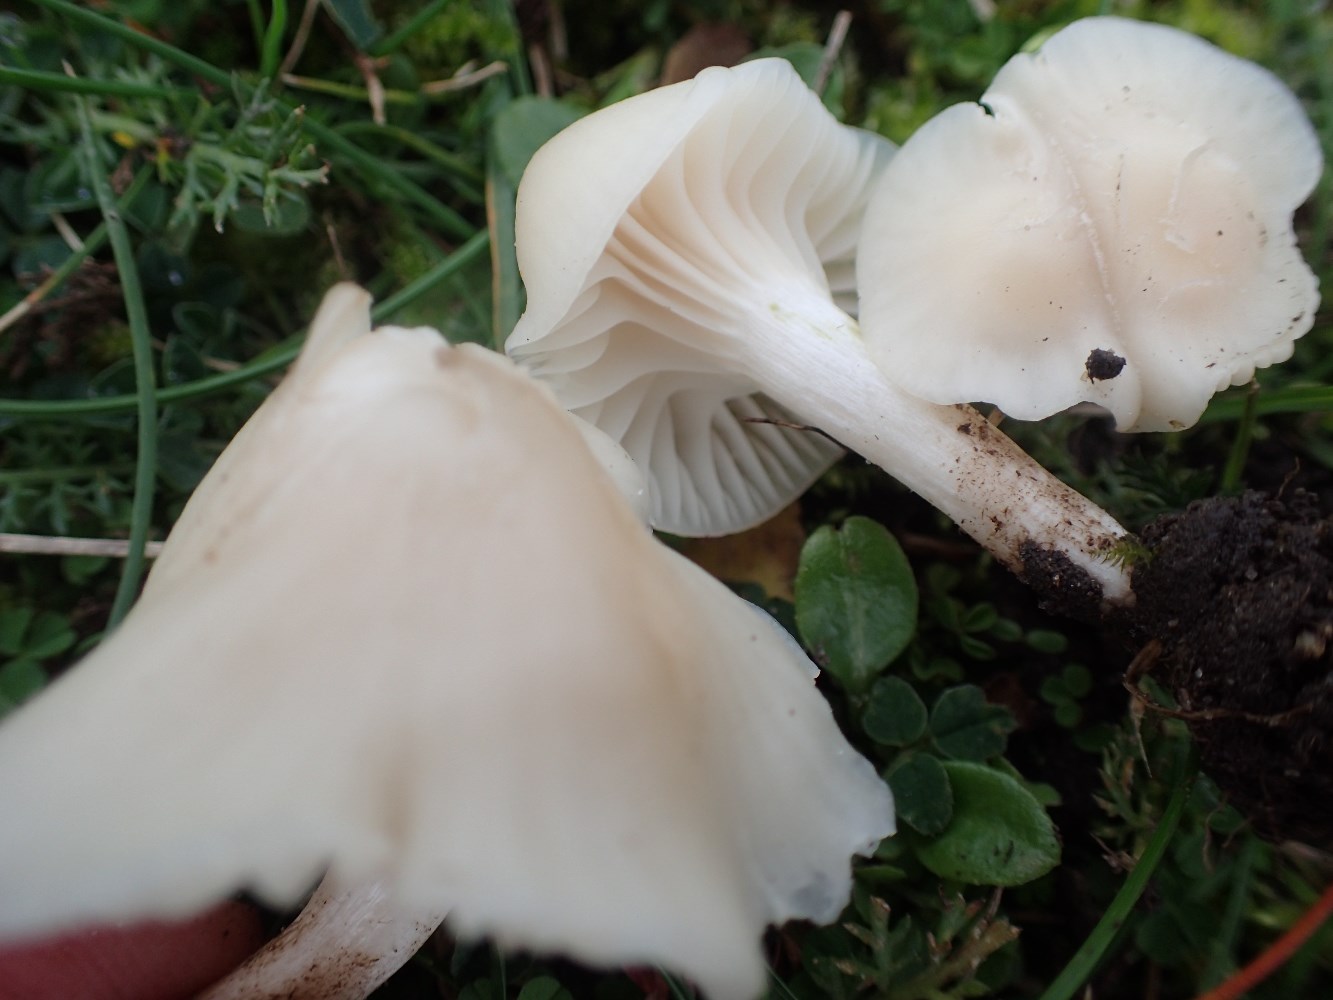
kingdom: Fungi
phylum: Basidiomycota
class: Agaricomycetes
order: Agaricales
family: Hygrophoraceae
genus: Cuphophyllus
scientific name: Cuphophyllus virgineus
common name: snehvid vokshat
